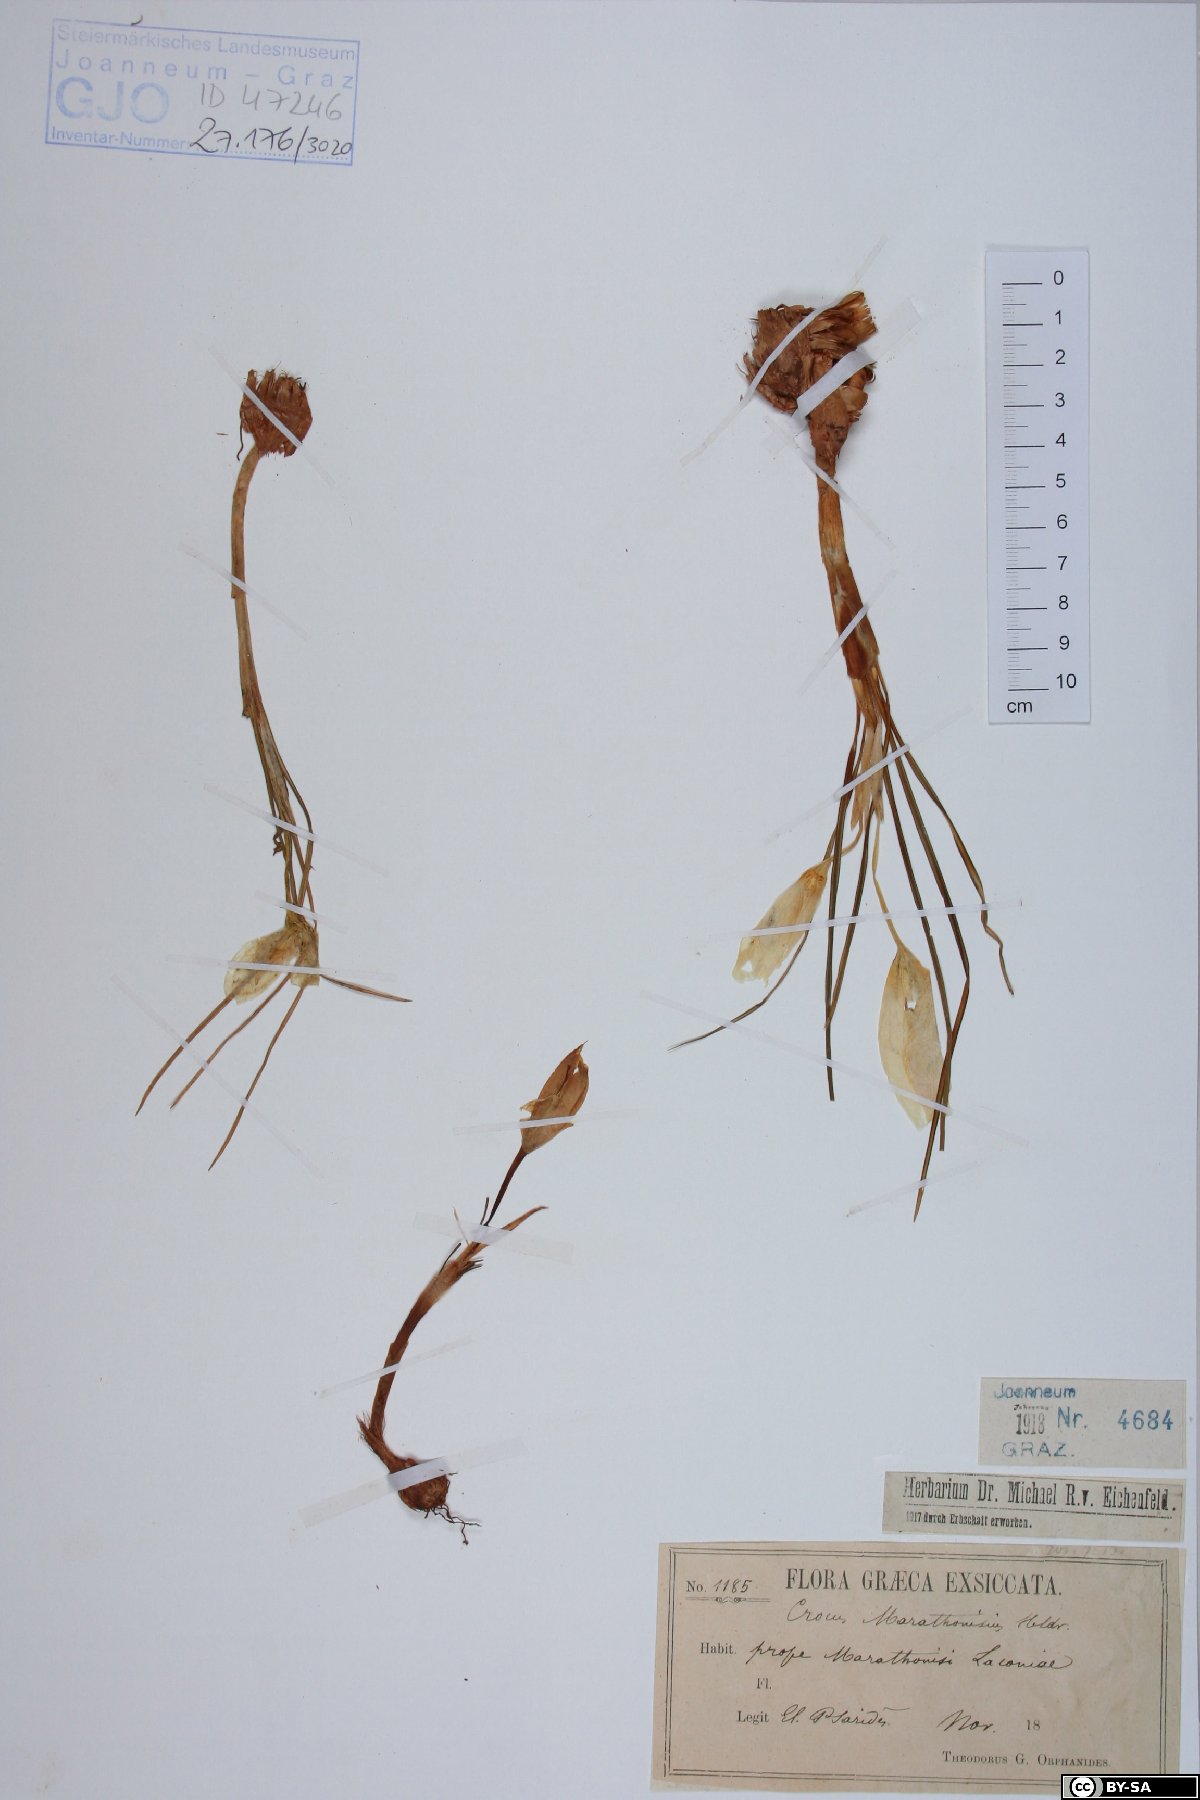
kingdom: Plantae
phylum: Tracheophyta
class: Liliopsida
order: Asparagales
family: Iridaceae
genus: Crocus
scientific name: Crocus boryi
